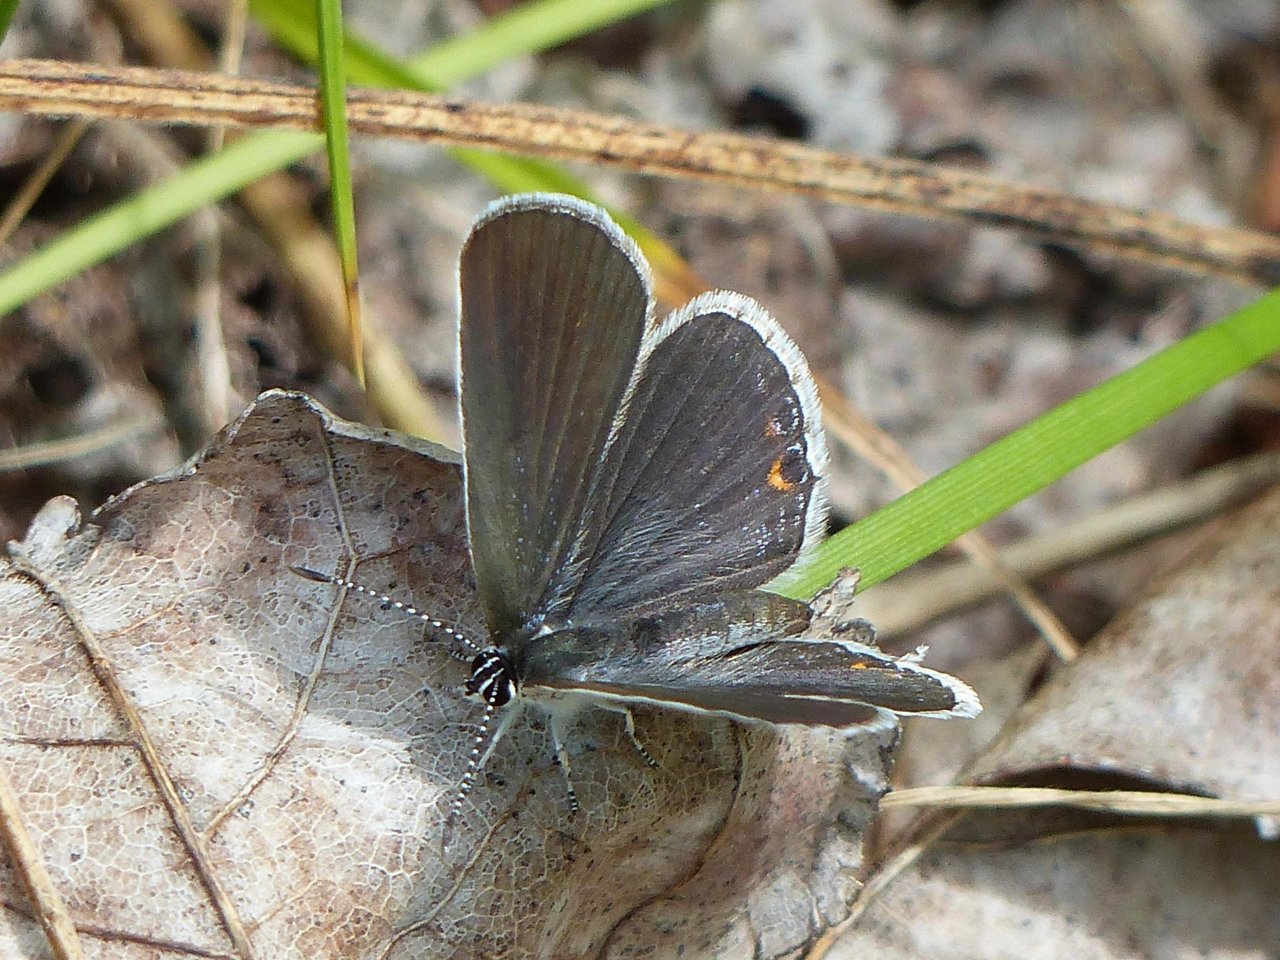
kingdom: Animalia
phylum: Arthropoda
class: Insecta
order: Lepidoptera
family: Lycaenidae
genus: Elkalyce
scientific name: Elkalyce comyntas
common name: Eastern Tailed-Blue
